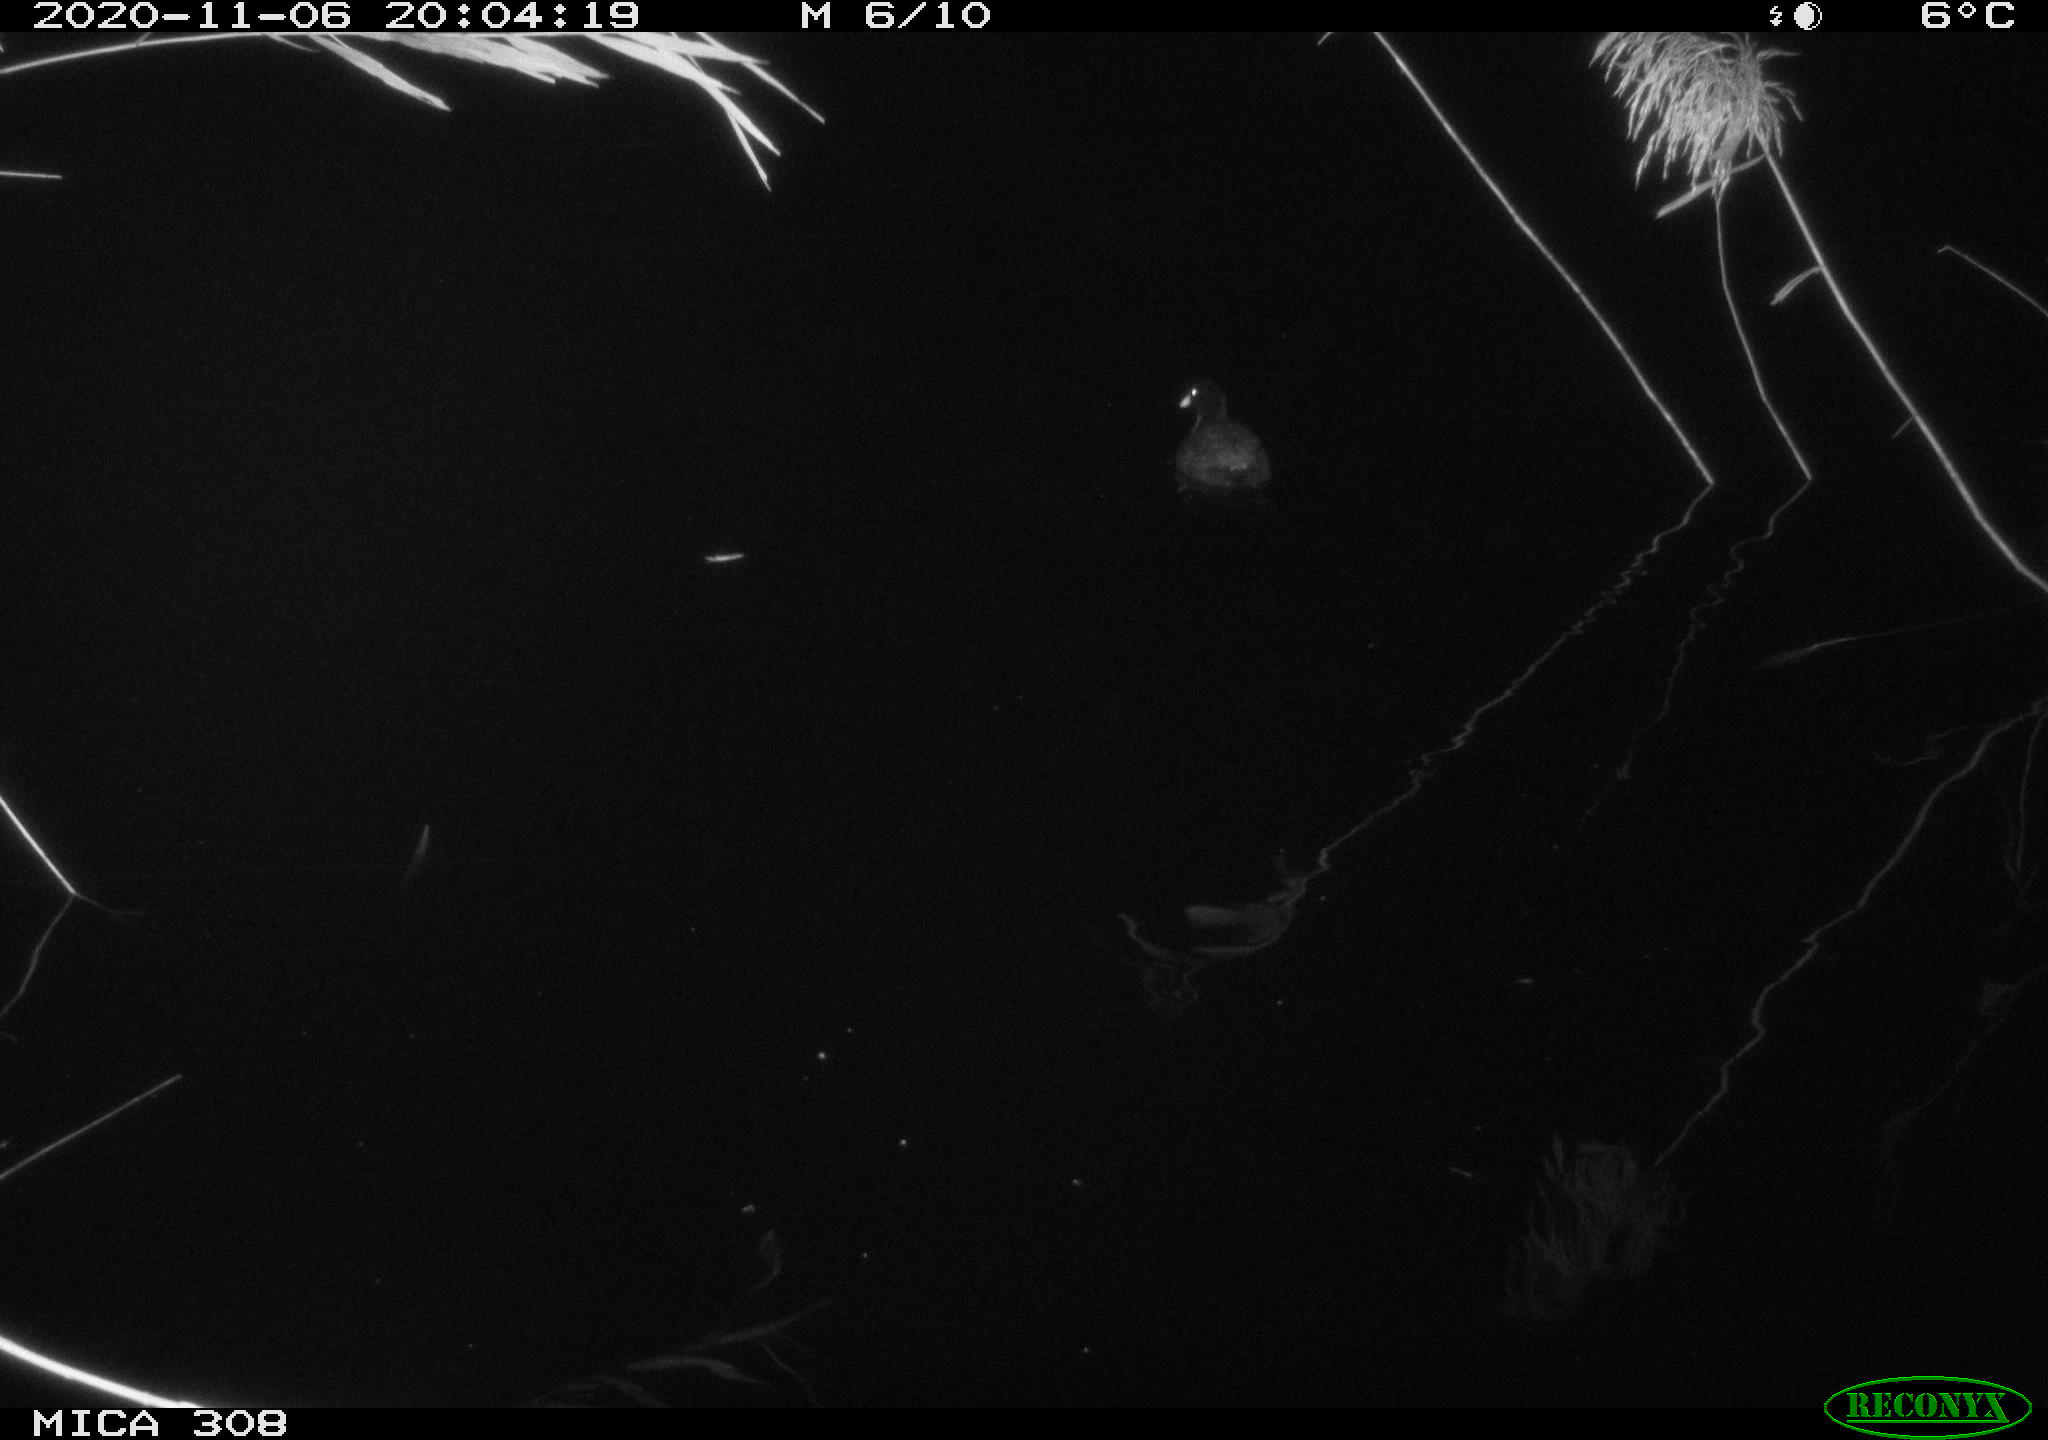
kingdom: Animalia
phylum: Chordata
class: Aves
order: Gruiformes
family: Rallidae
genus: Fulica
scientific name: Fulica atra
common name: Eurasian coot
